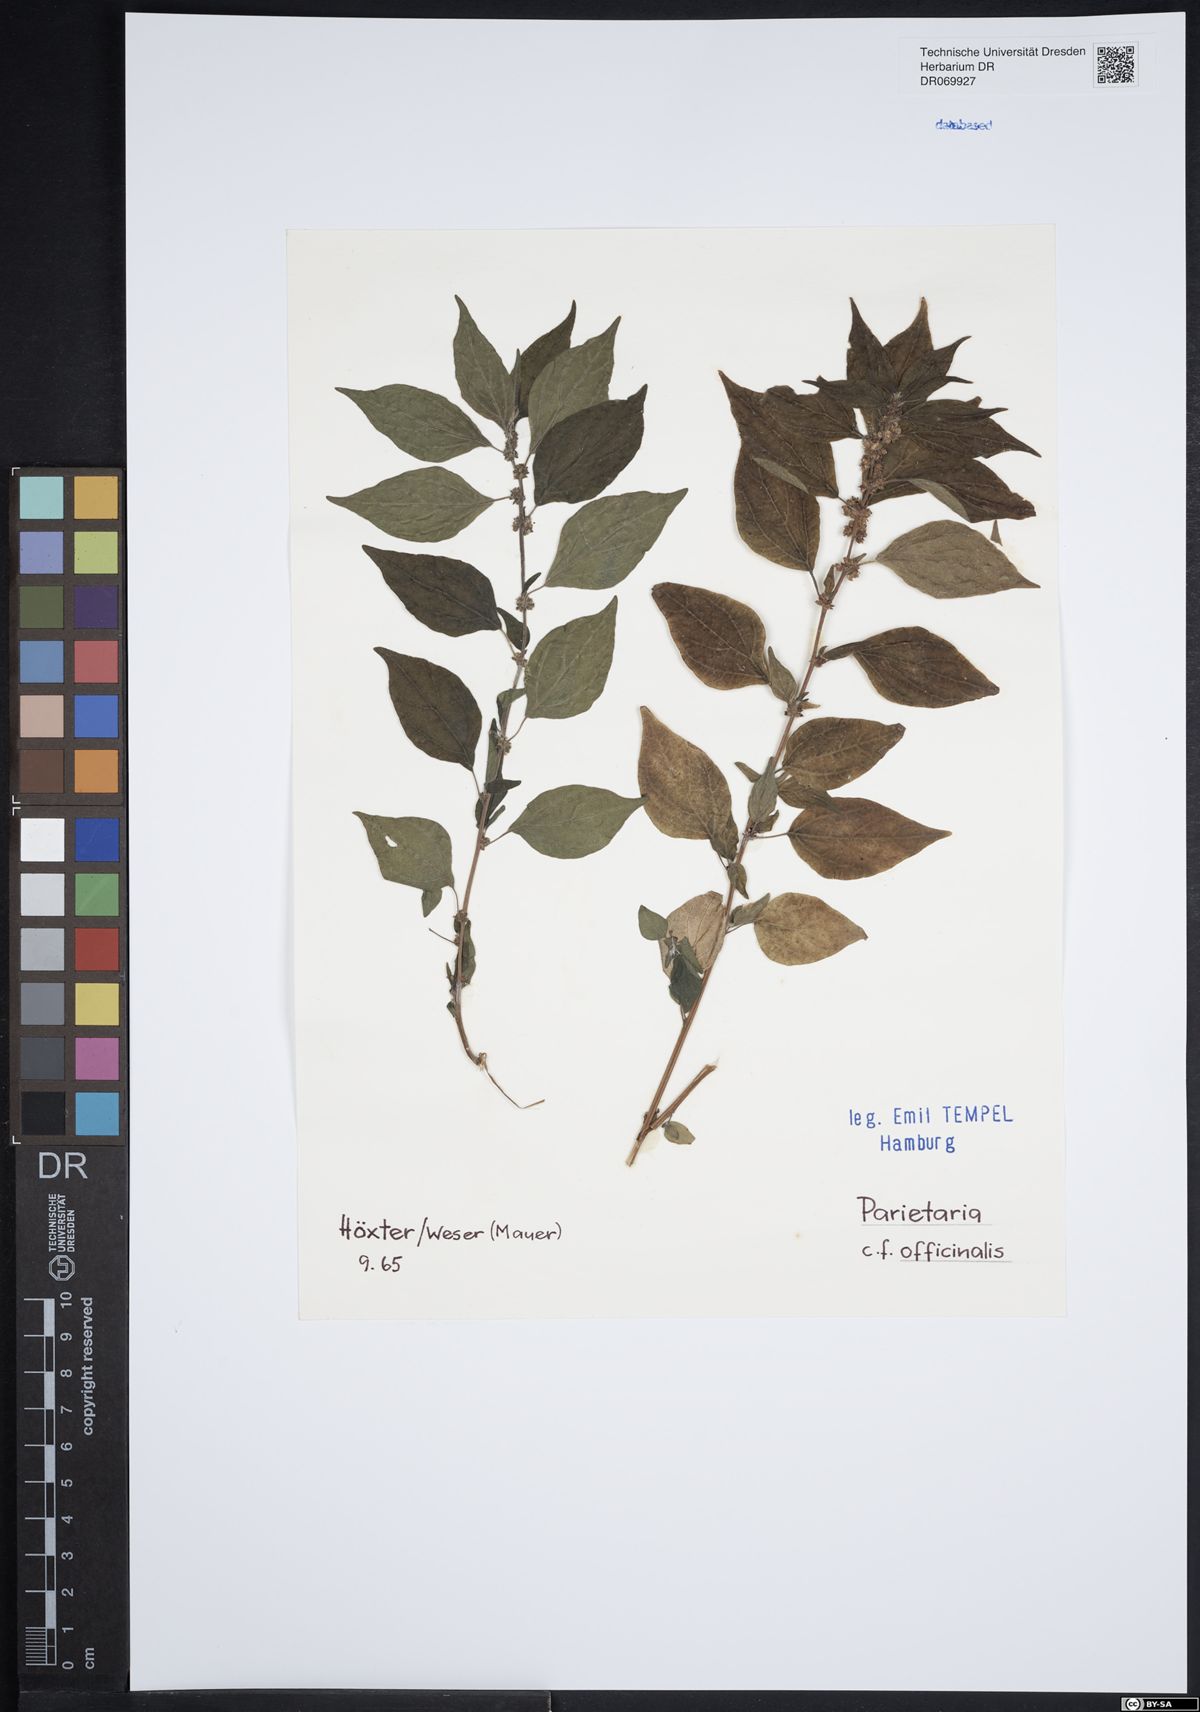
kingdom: Plantae
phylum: Tracheophyta
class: Magnoliopsida
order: Rosales
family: Urticaceae
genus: Parietaria
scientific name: Parietaria officinalis
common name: Eastern pellitory-of-the-wall
